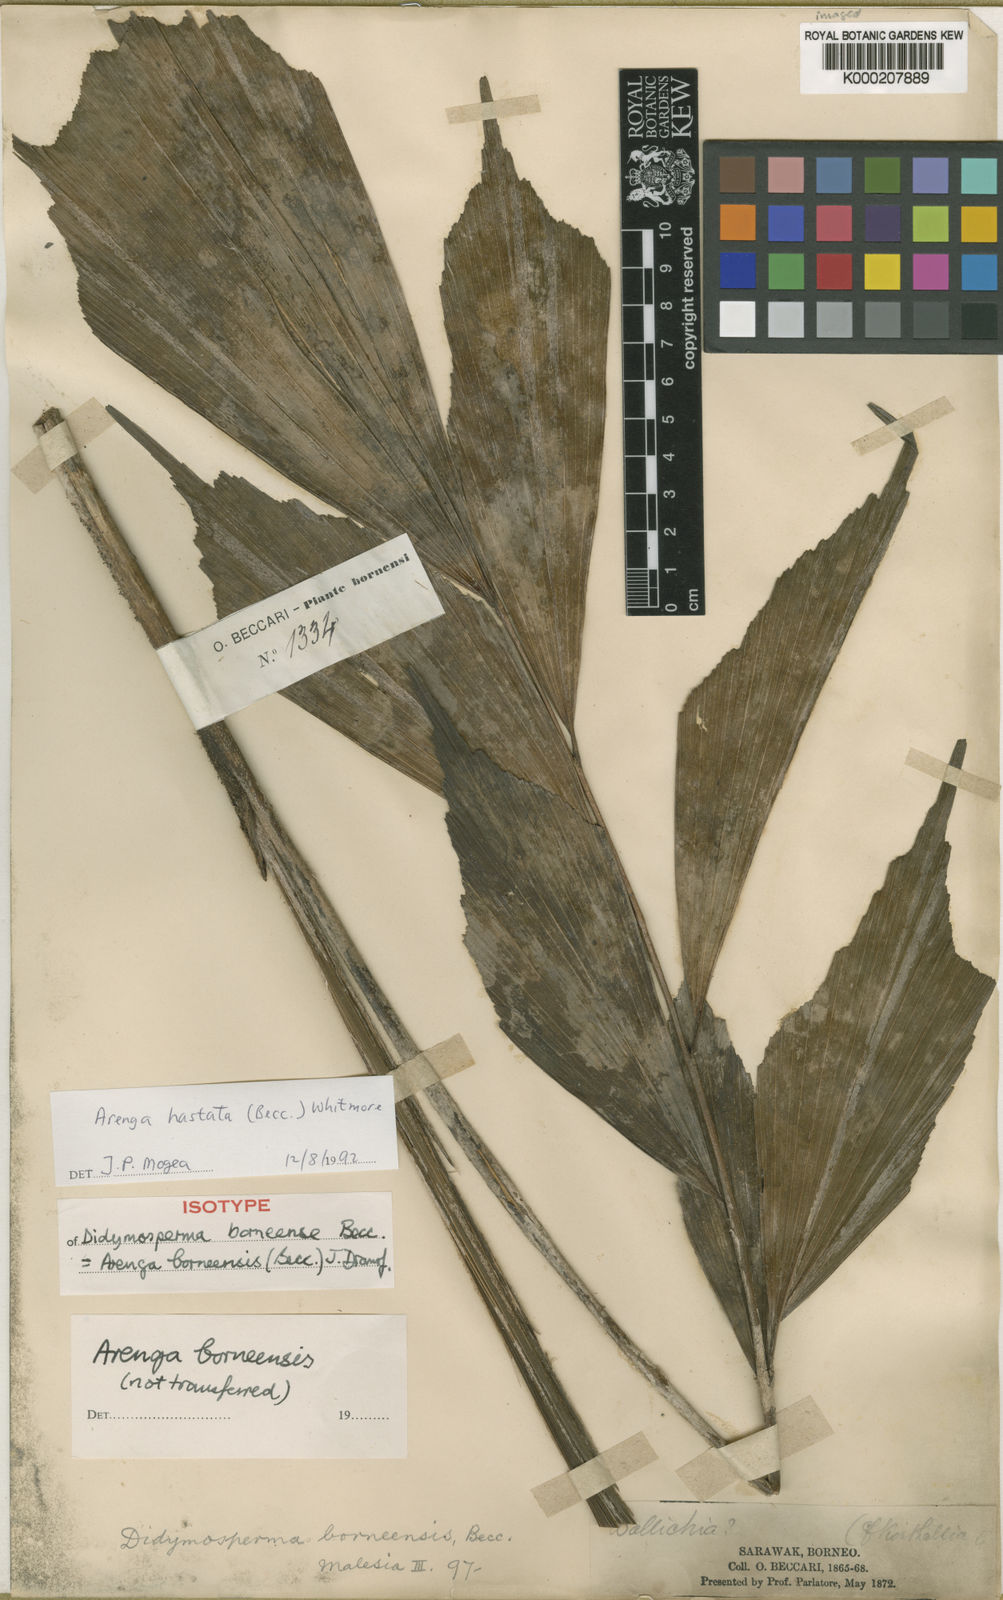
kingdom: Plantae
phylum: Tracheophyta
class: Liliopsida
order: Arecales
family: Arecaceae
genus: Arenga
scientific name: Arenga hastata
